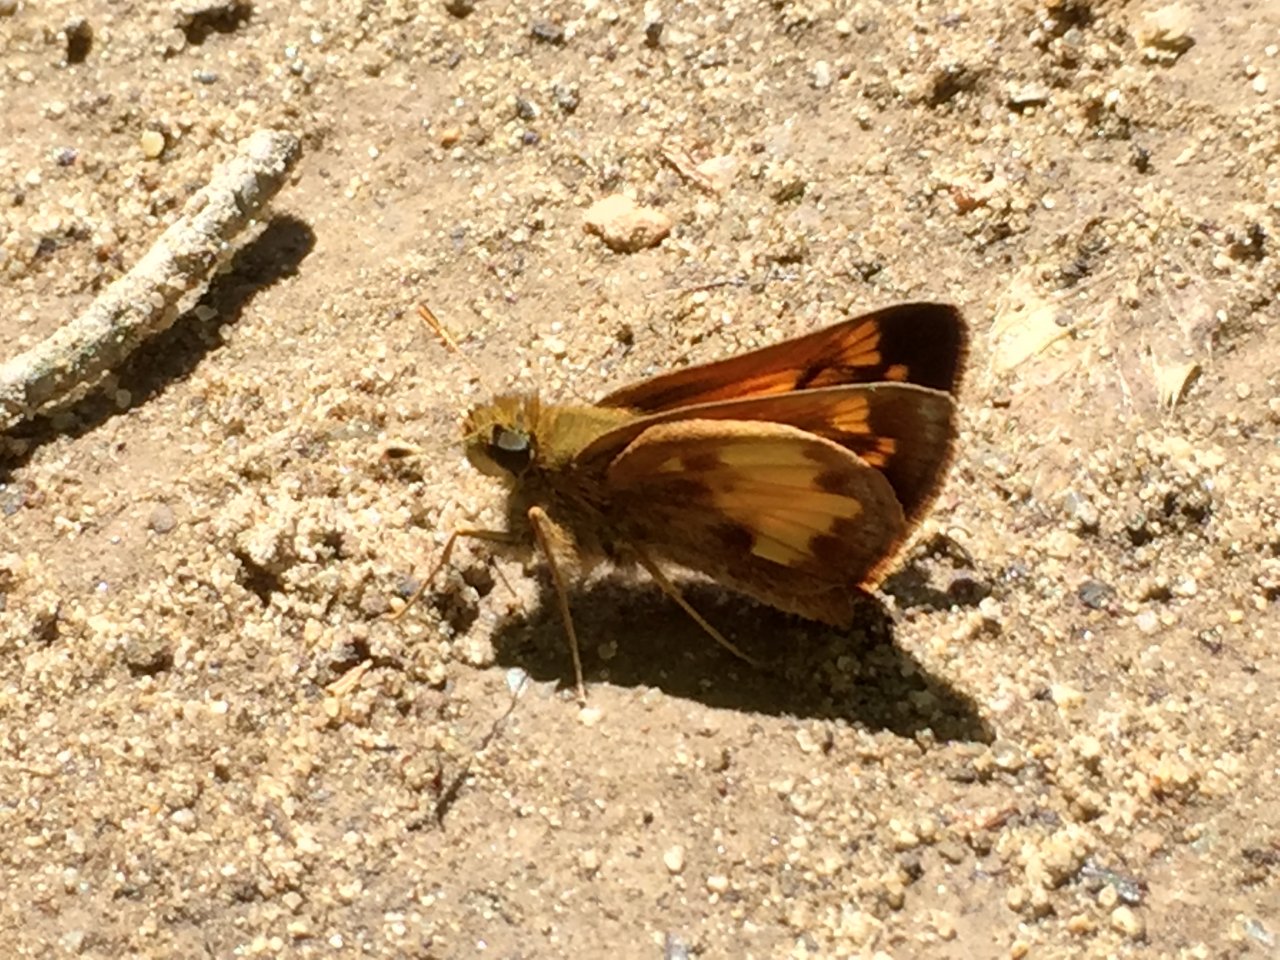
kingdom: Animalia
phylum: Arthropoda
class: Insecta
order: Lepidoptera
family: Hesperiidae
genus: Lon
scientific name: Lon hobomok
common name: Hobomok Skipper
